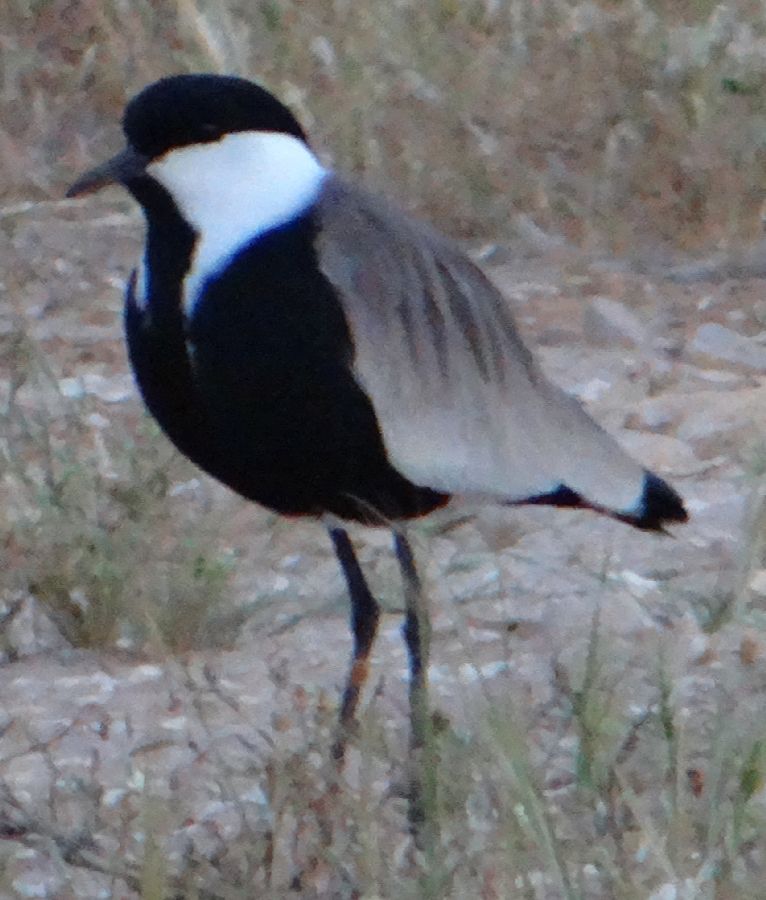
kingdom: Animalia
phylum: Chordata
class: Aves
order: Charadriiformes
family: Charadriidae
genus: Vanellus
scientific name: Vanellus spinosus
